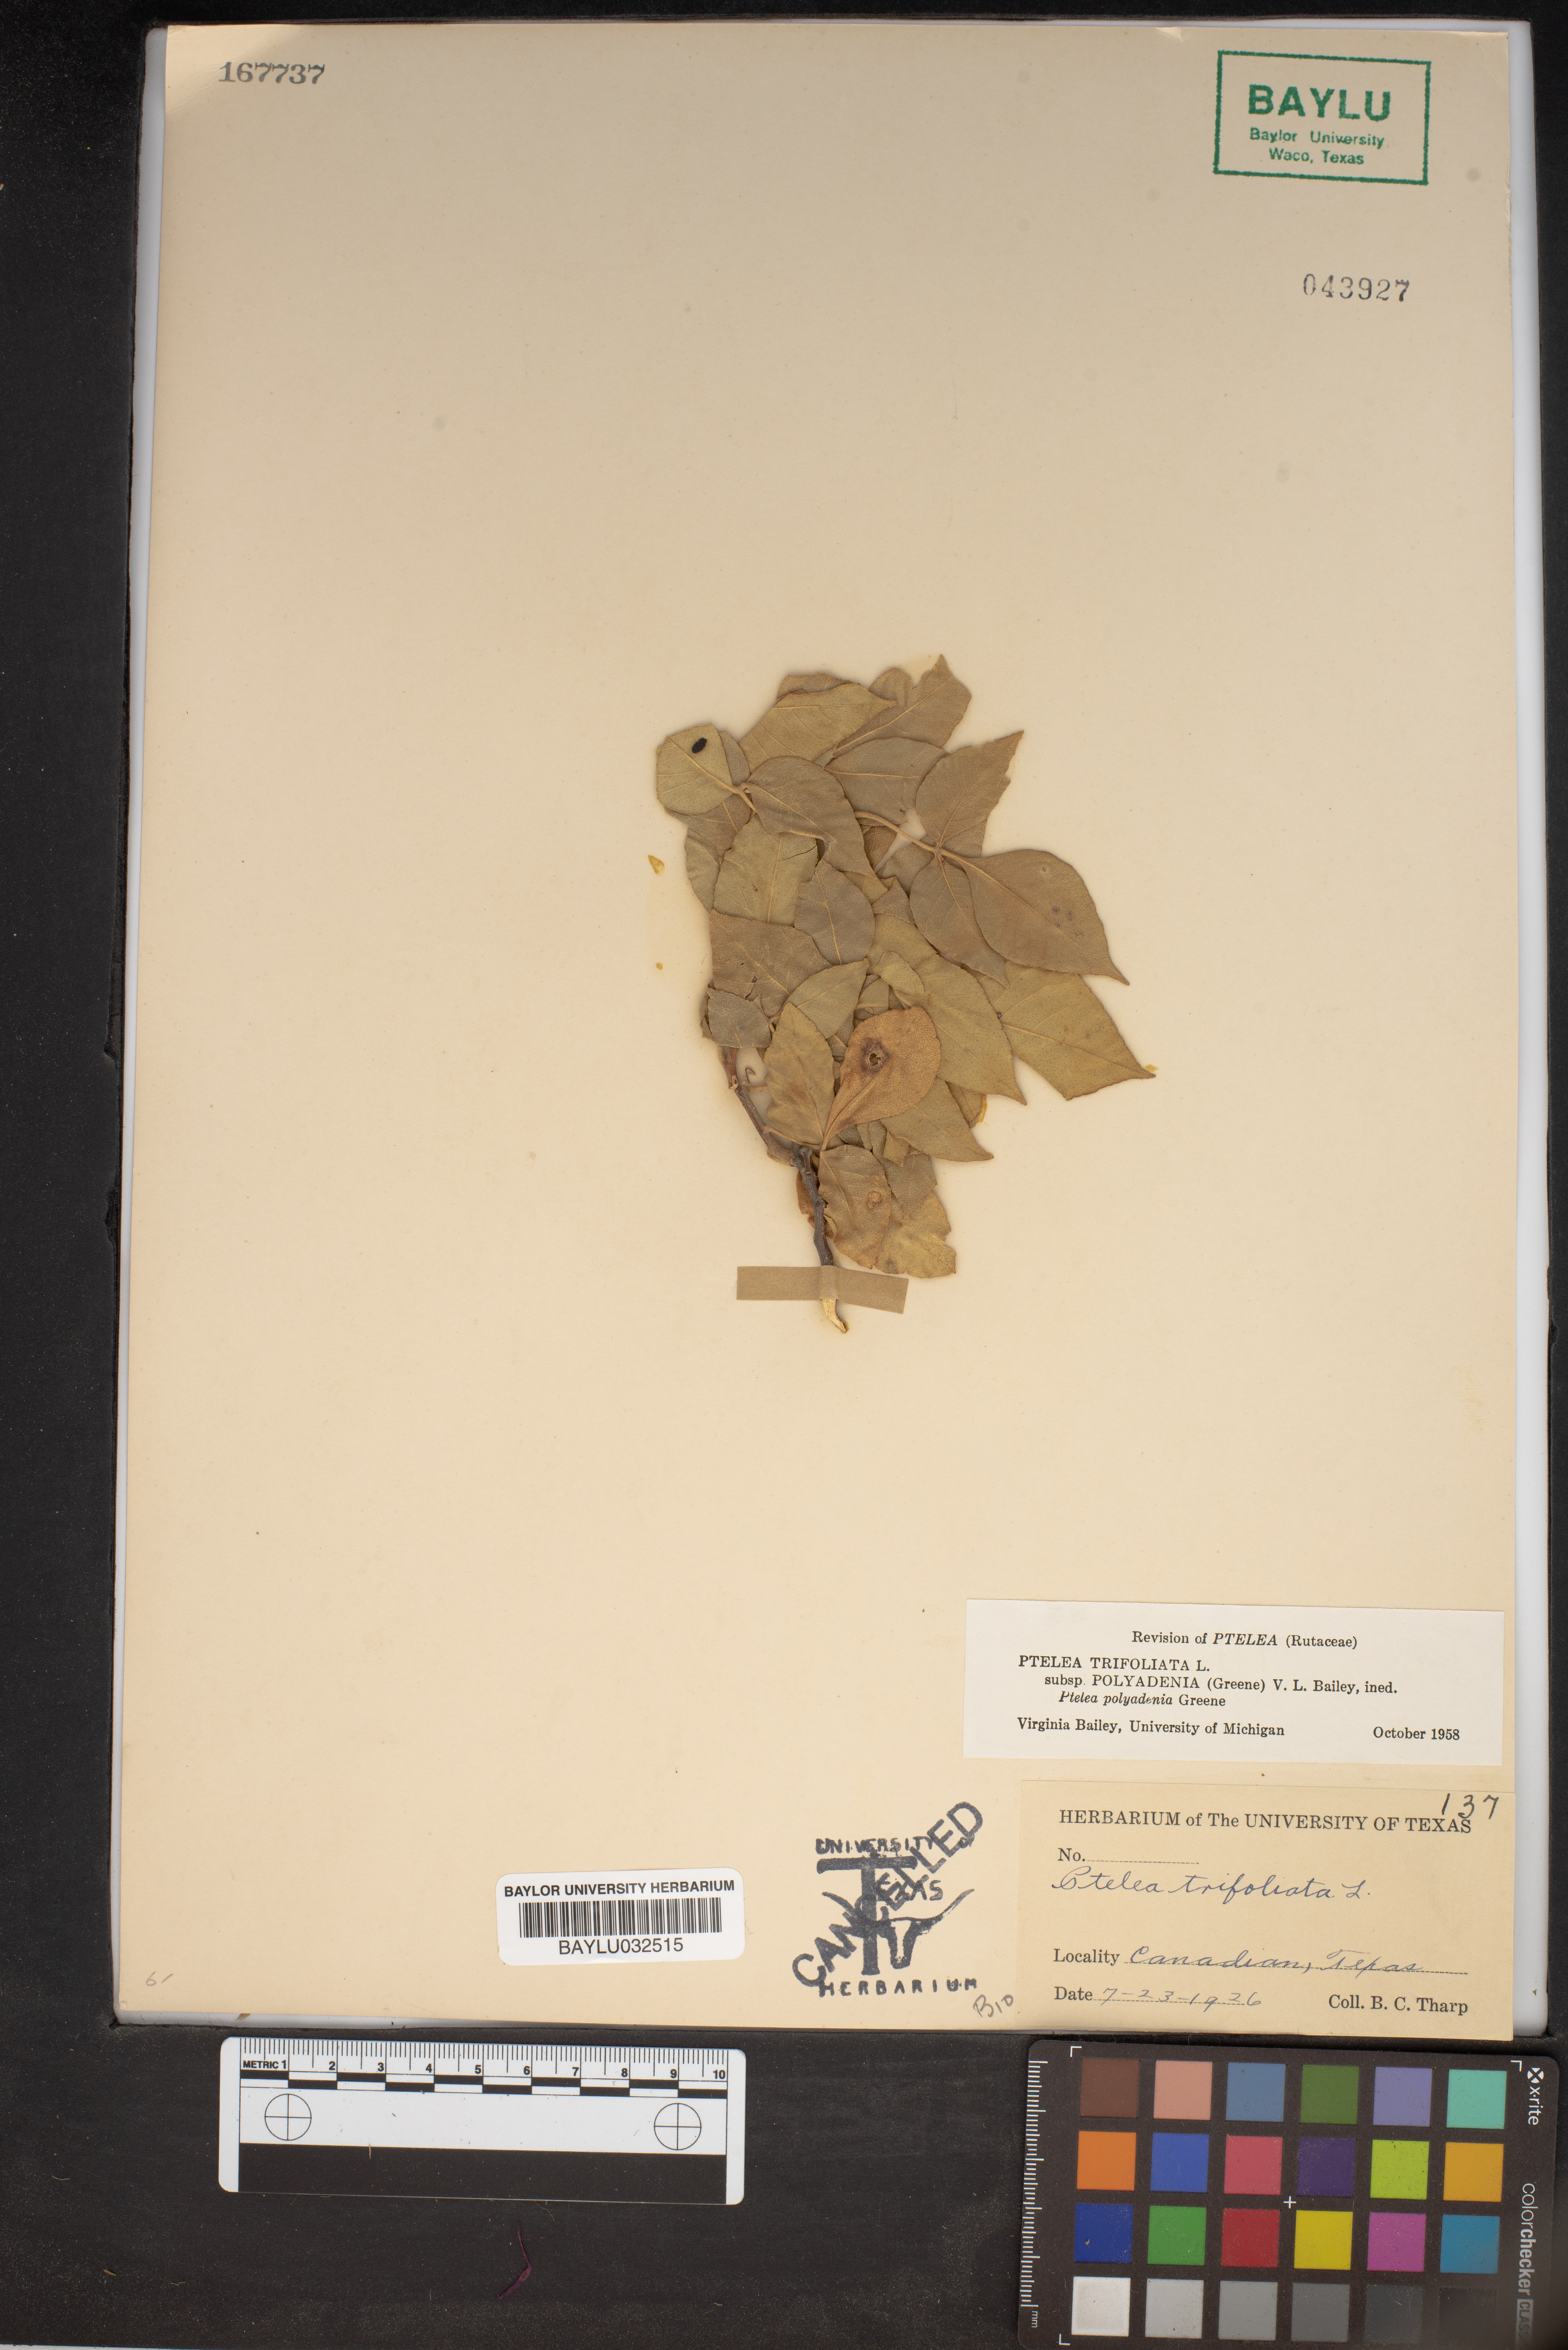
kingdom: Plantae
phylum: Tracheophyta
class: Magnoliopsida
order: Sapindales
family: Rutaceae
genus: Ptelea
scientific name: Ptelea trifoliata
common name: Common hop-tree
